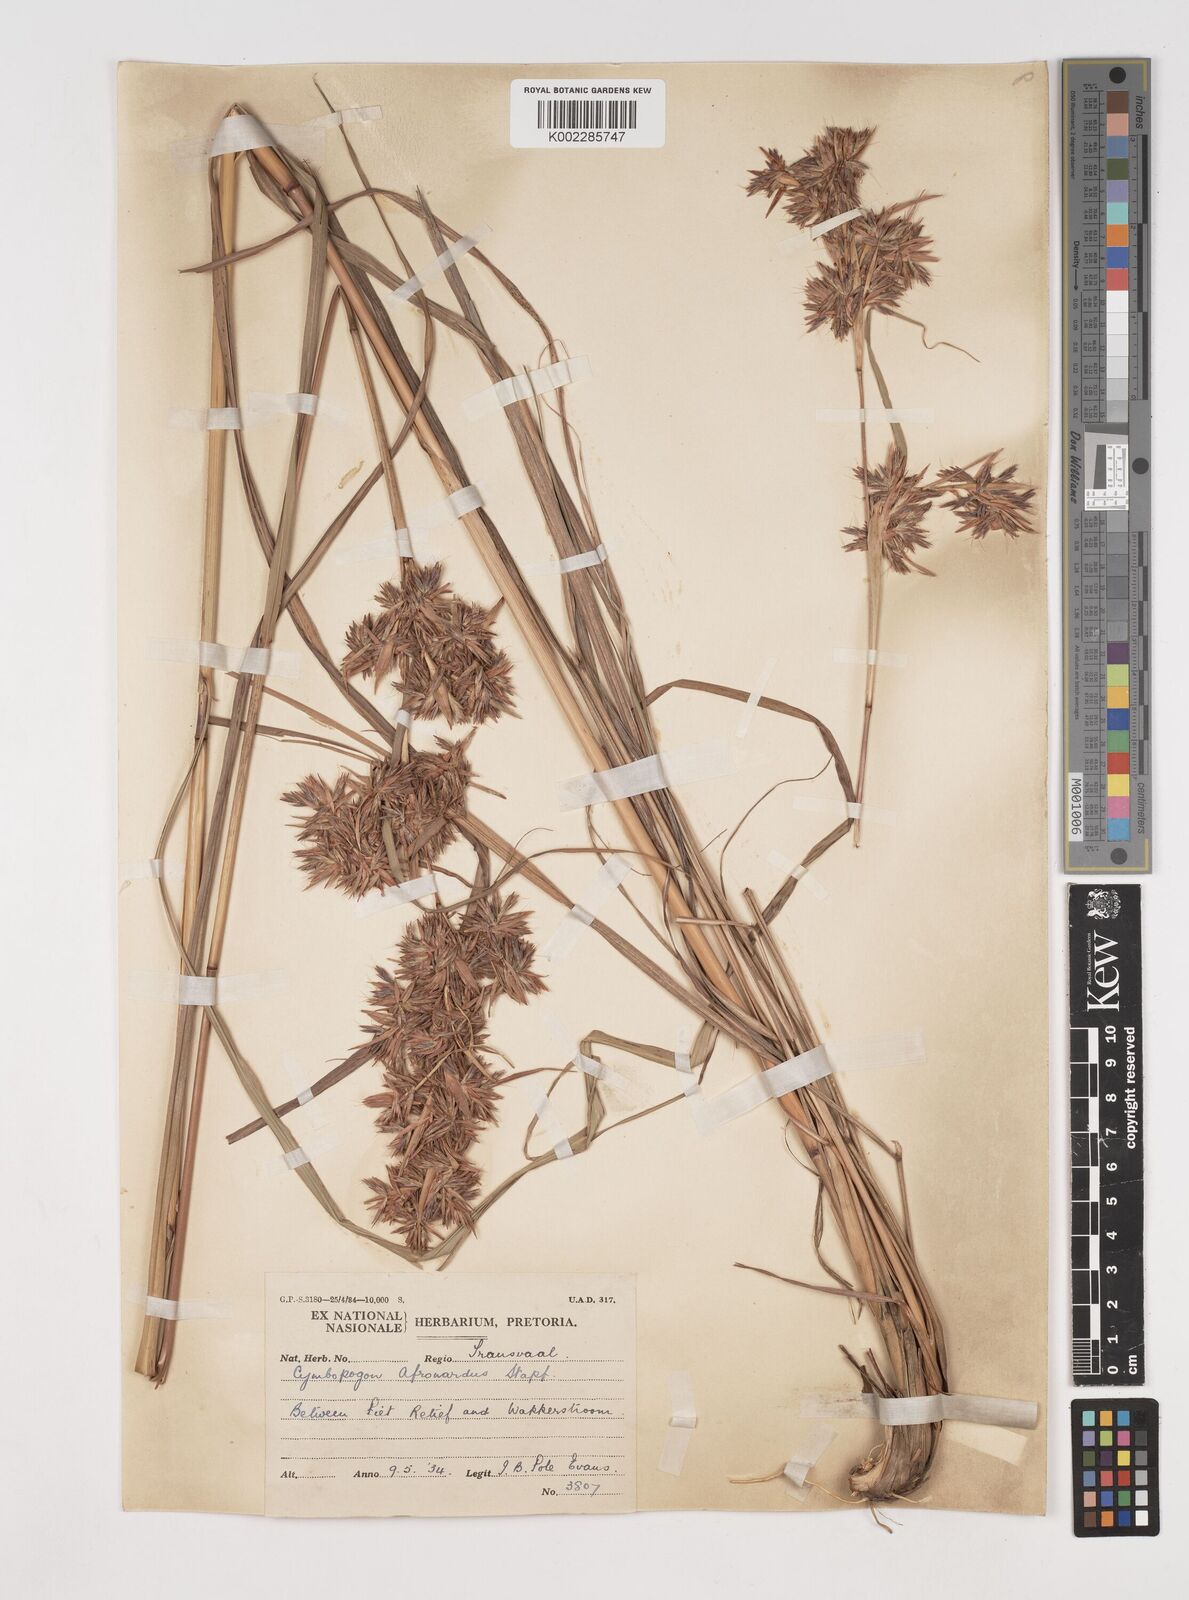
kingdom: Plantae
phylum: Tracheophyta
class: Liliopsida
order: Poales
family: Poaceae
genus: Cymbopogon
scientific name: Cymbopogon nardus
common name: Giant turpentine grass
